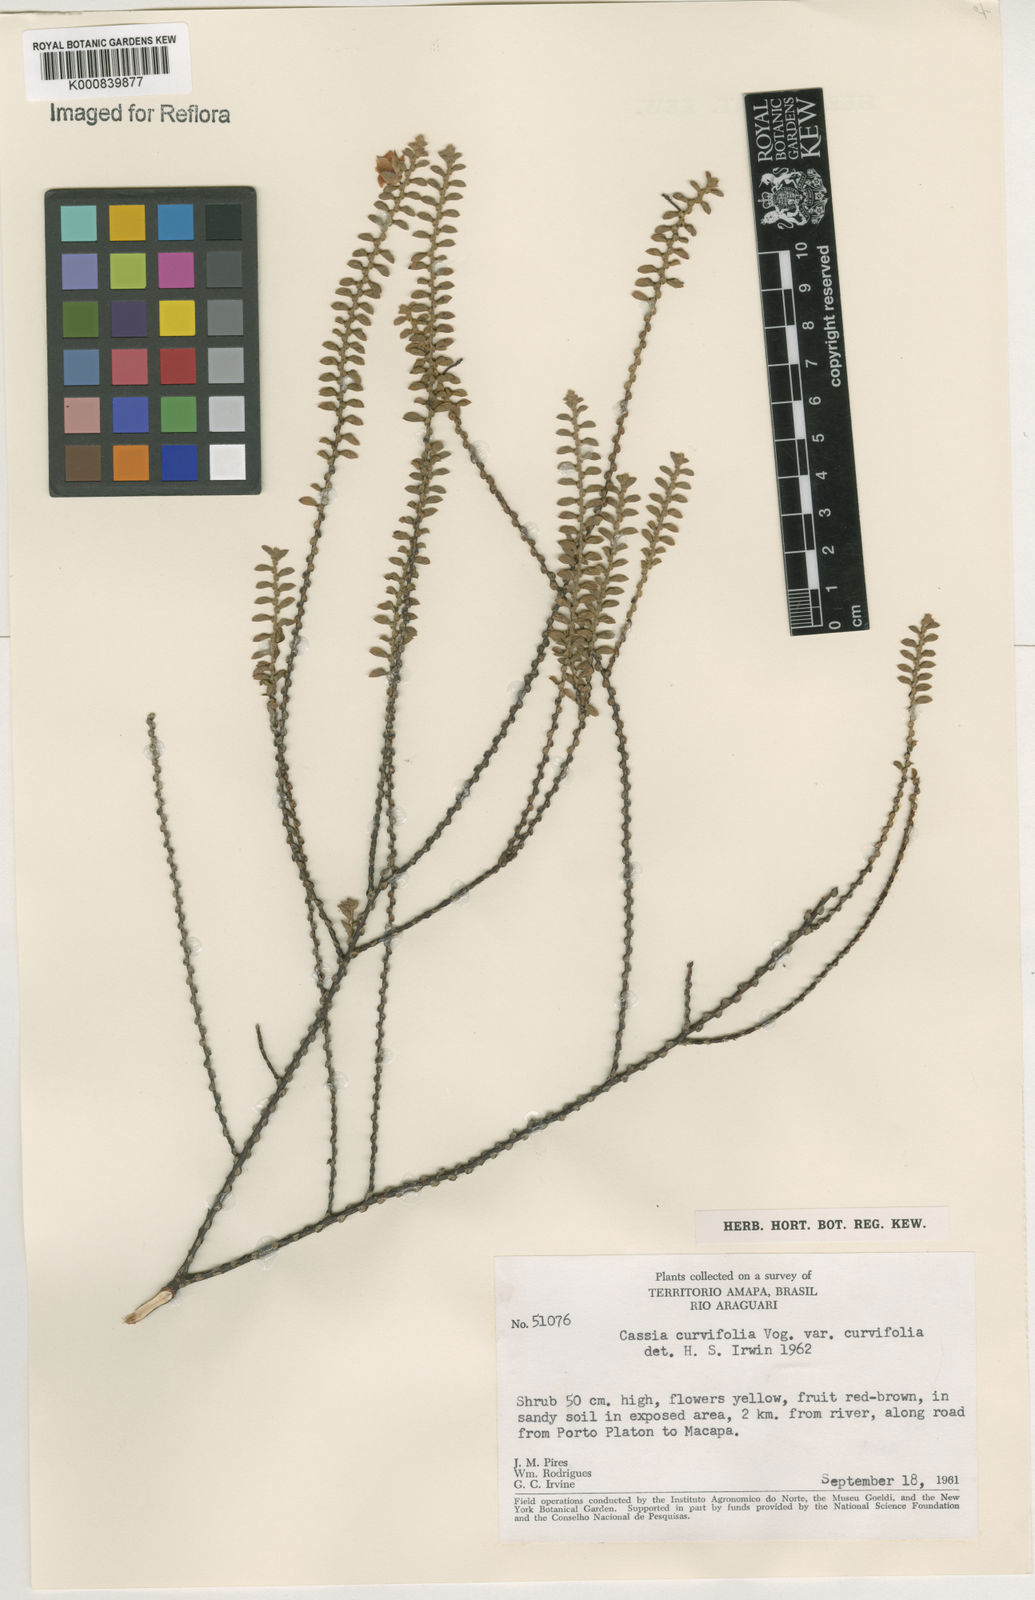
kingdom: Plantae
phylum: Tracheophyta
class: Magnoliopsida
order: Fabales
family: Fabaceae
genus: Chamaecrista
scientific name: Chamaecrista ramosa
